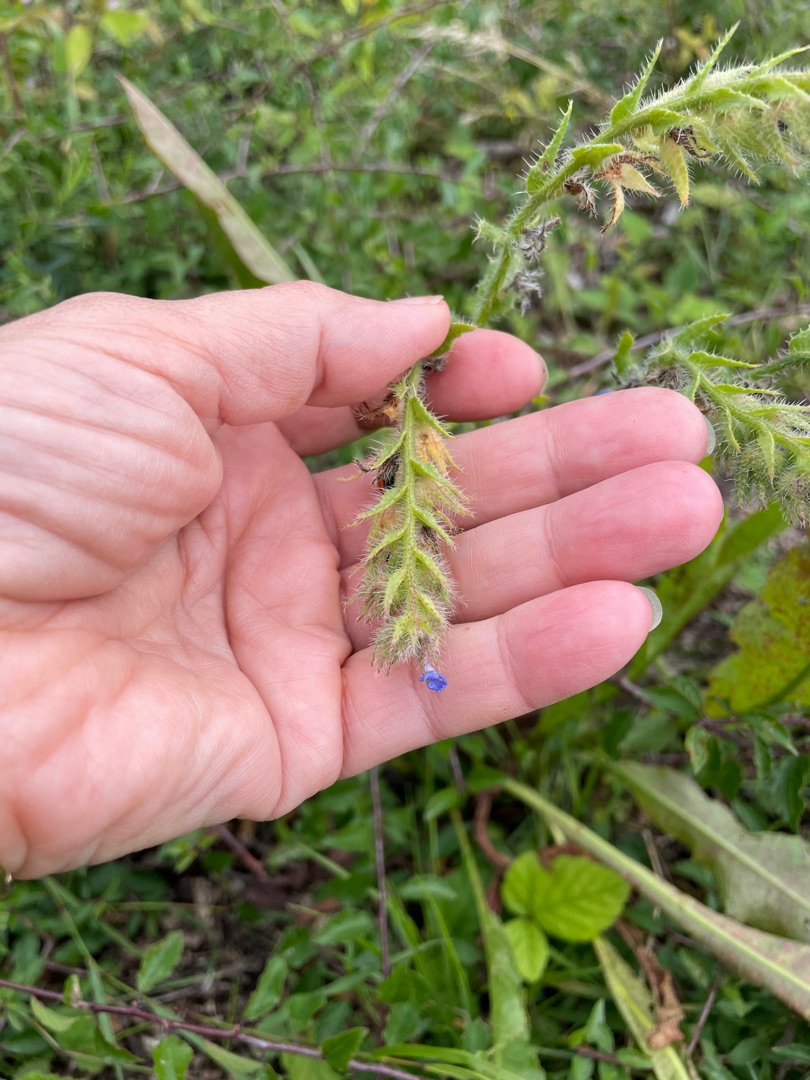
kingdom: Plantae
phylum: Tracheophyta
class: Magnoliopsida
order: Boraginales
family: Boraginaceae
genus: Lycopsis
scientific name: Lycopsis arvensis
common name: Krumhals
